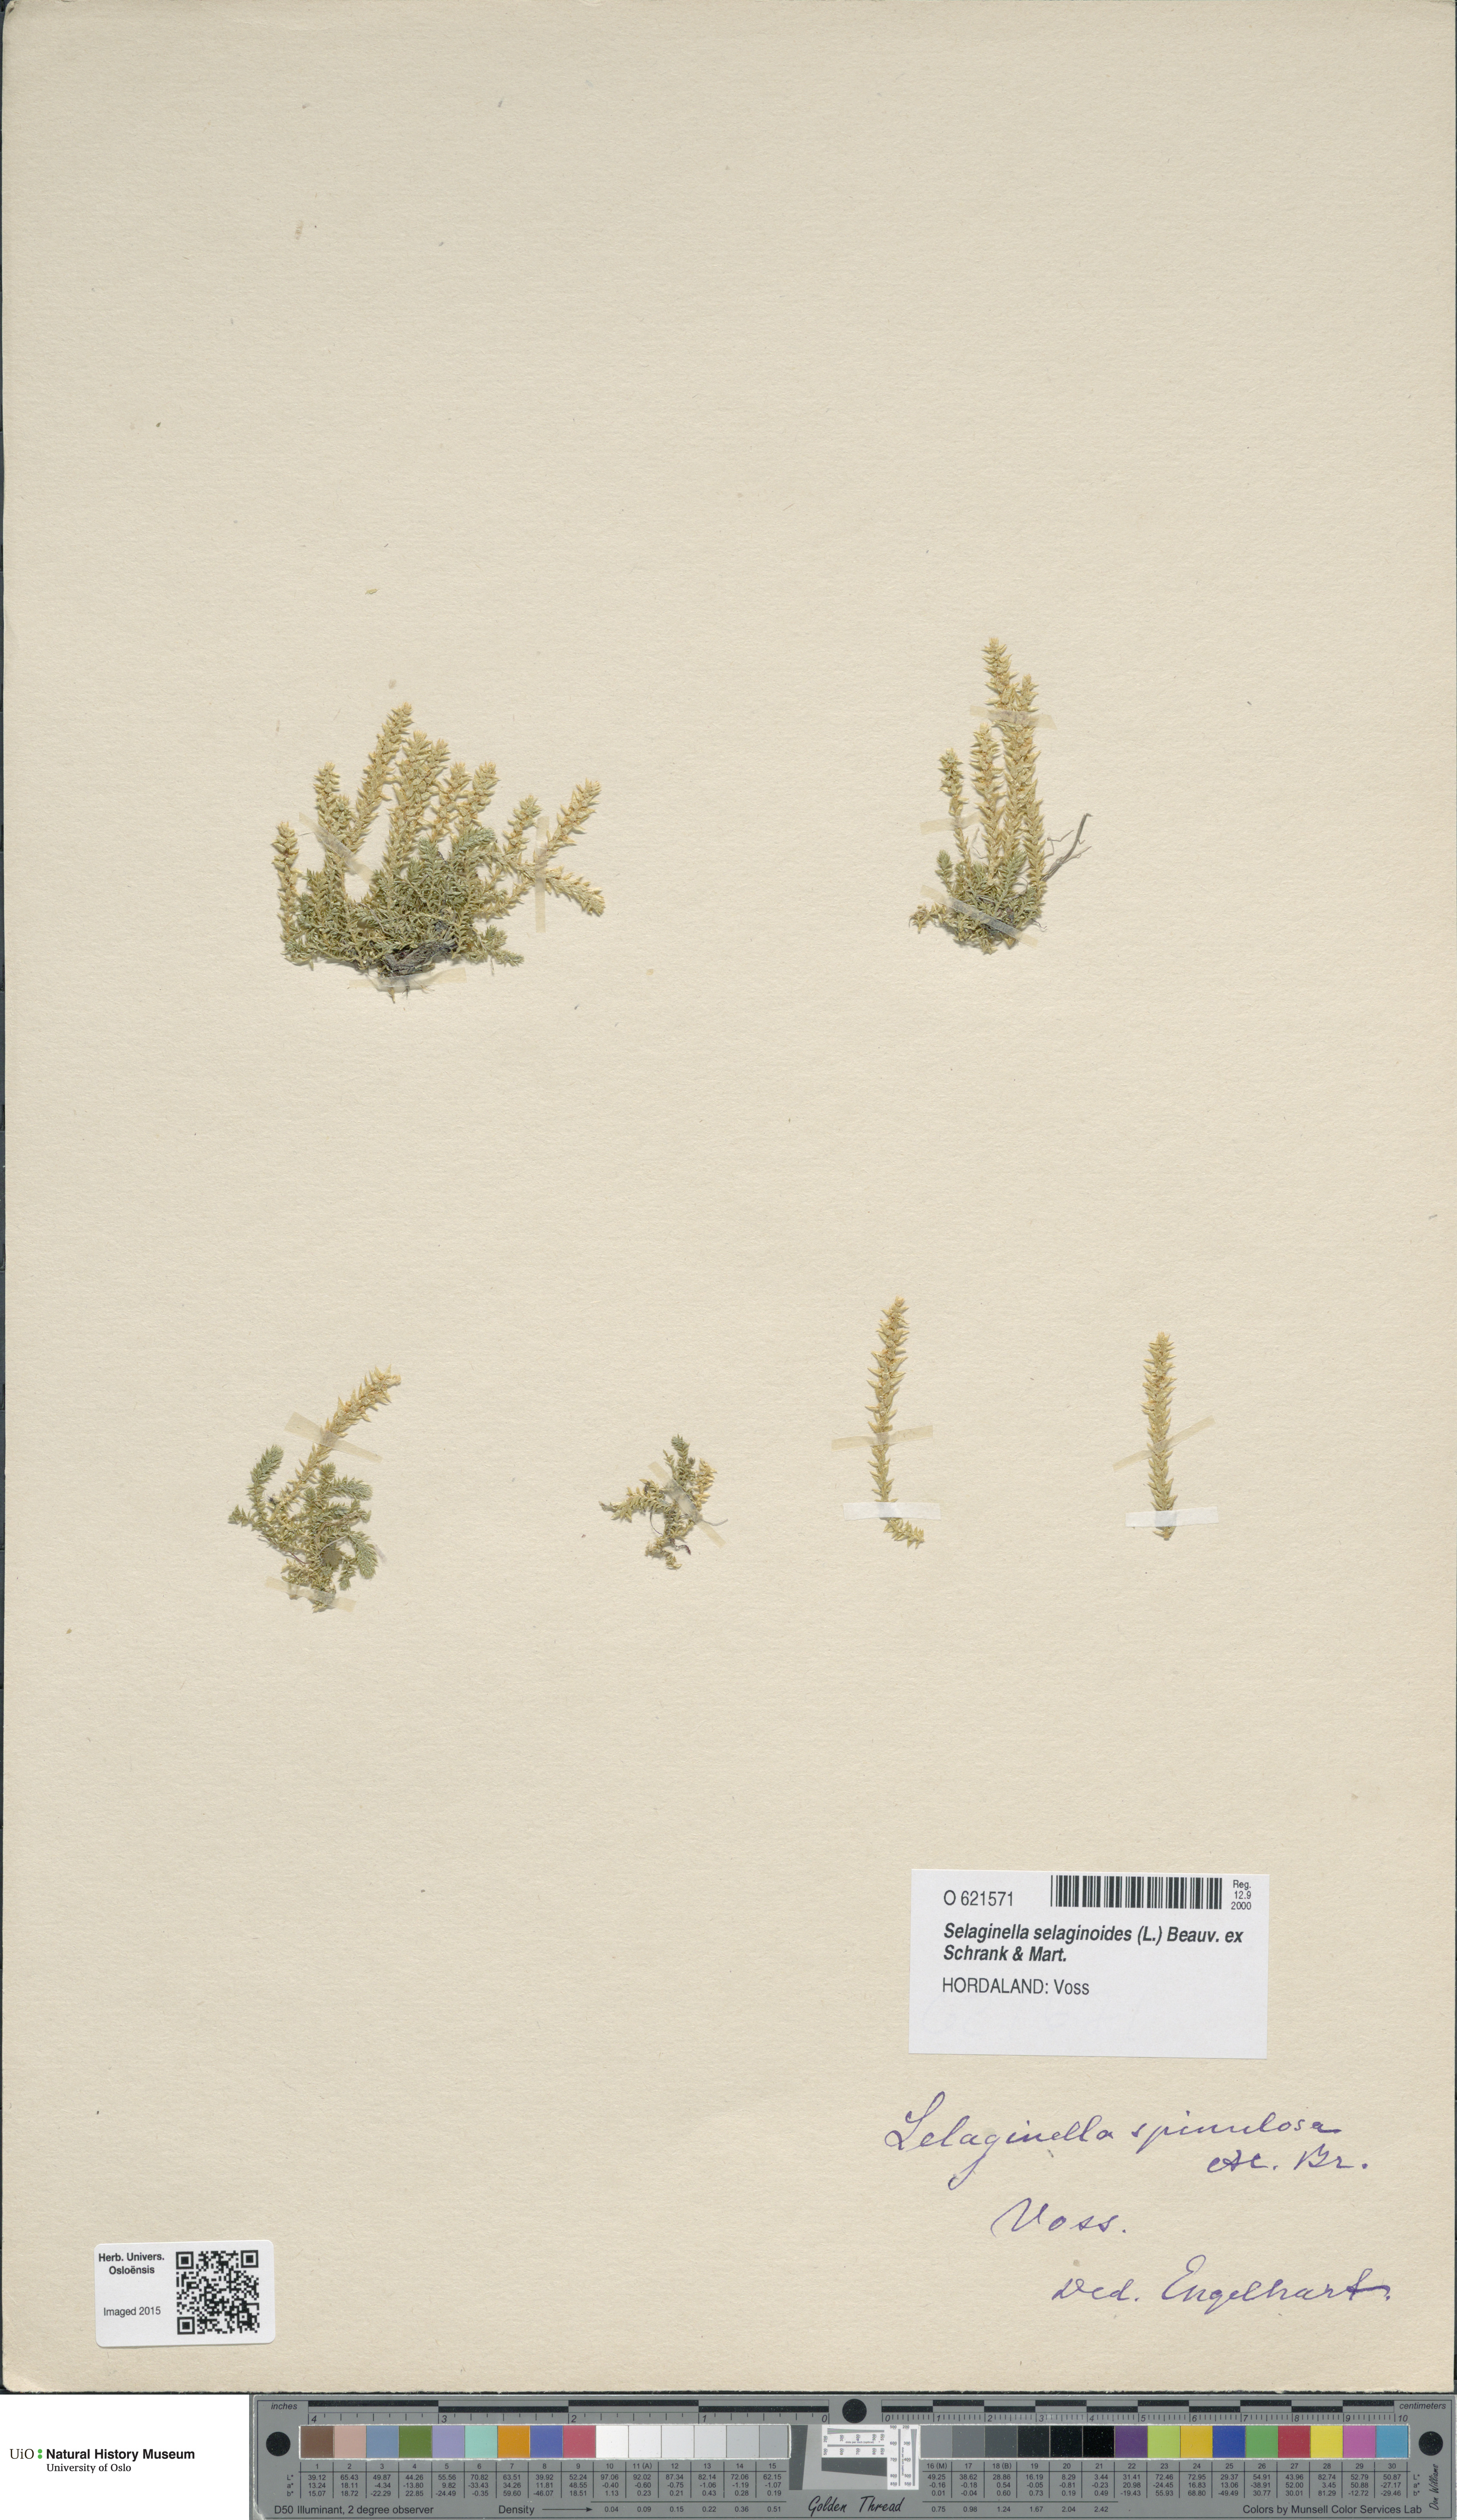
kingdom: Plantae
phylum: Tracheophyta
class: Lycopodiopsida
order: Selaginellales
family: Selaginellaceae
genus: Selaginella
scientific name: Selaginella selaginoides
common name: Prickly mountain-moss
